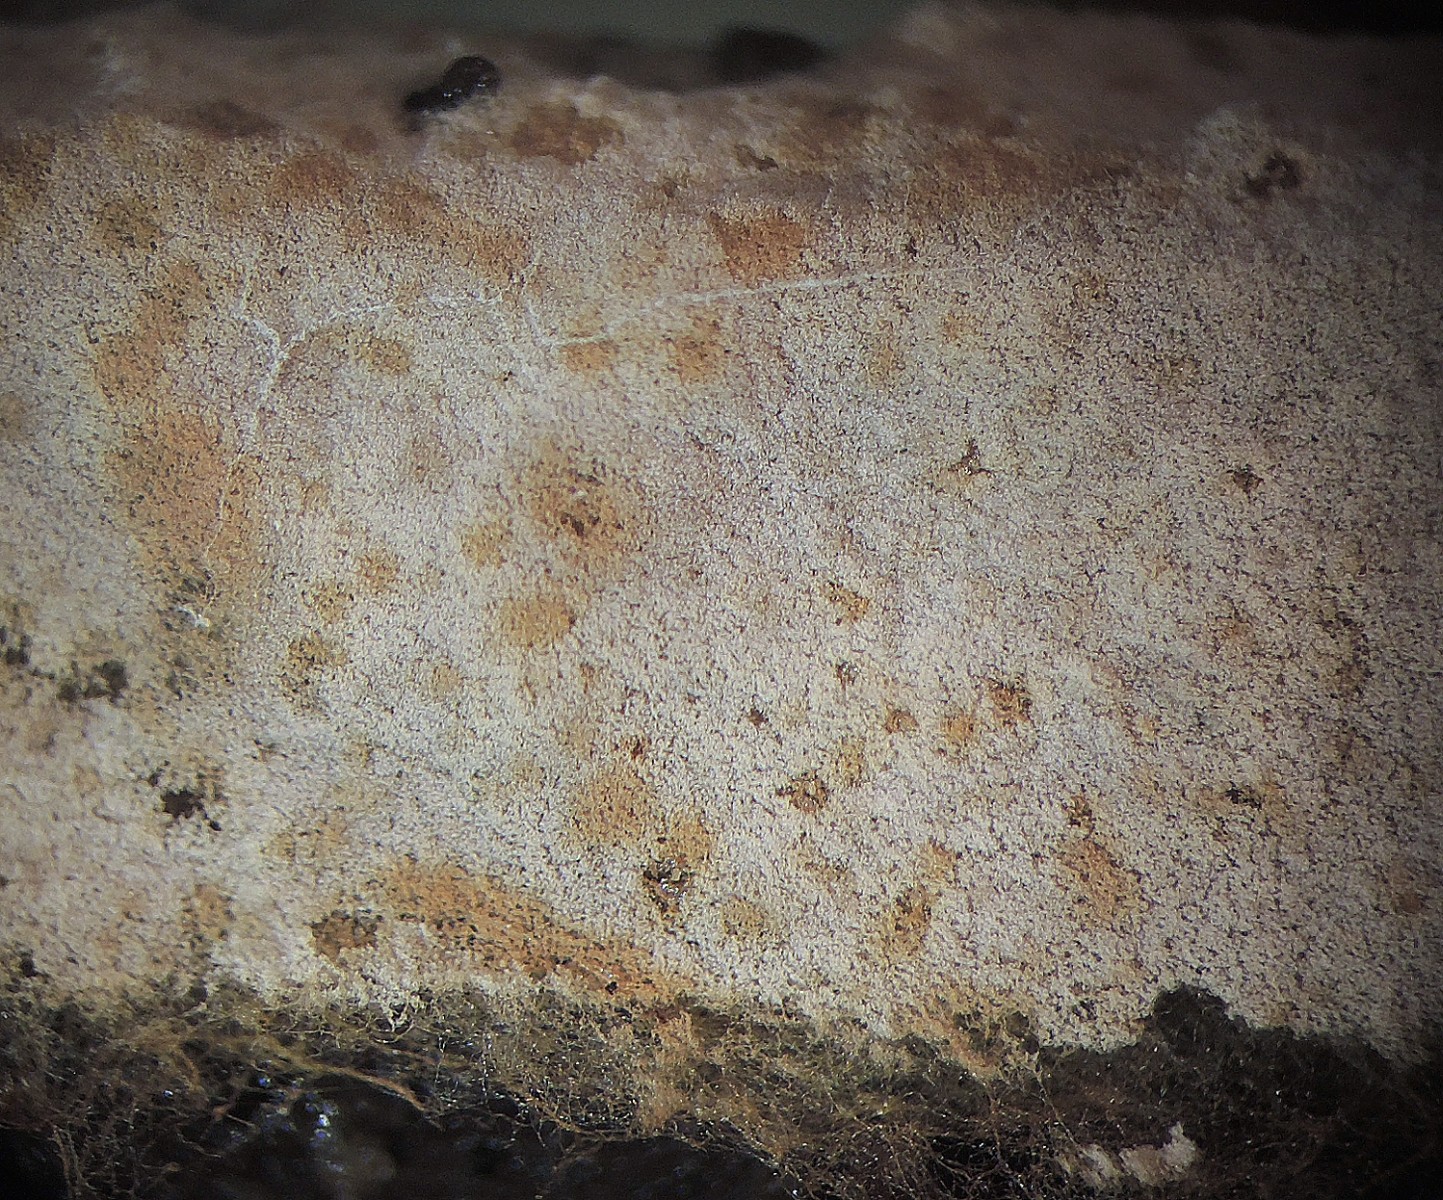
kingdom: Fungi
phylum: Basidiomycota
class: Agaricomycetes
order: Thelephorales
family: Thelephoraceae
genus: Tomentellopsis
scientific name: Tomentellopsis submollis
